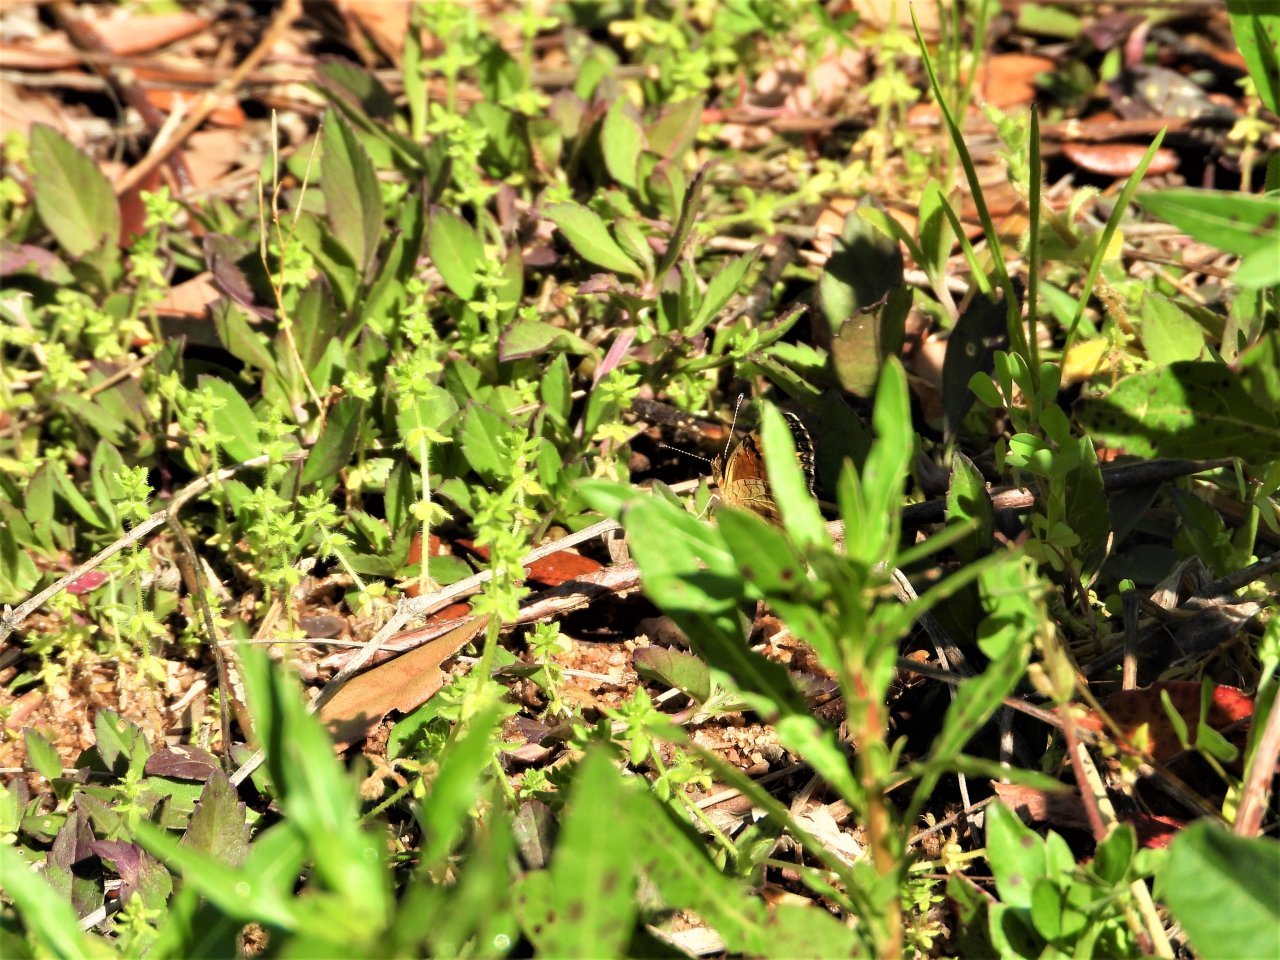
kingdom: Animalia
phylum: Arthropoda
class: Insecta
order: Lepidoptera
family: Nymphalidae
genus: Vanessa
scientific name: Vanessa cardui
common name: Painted Lady
